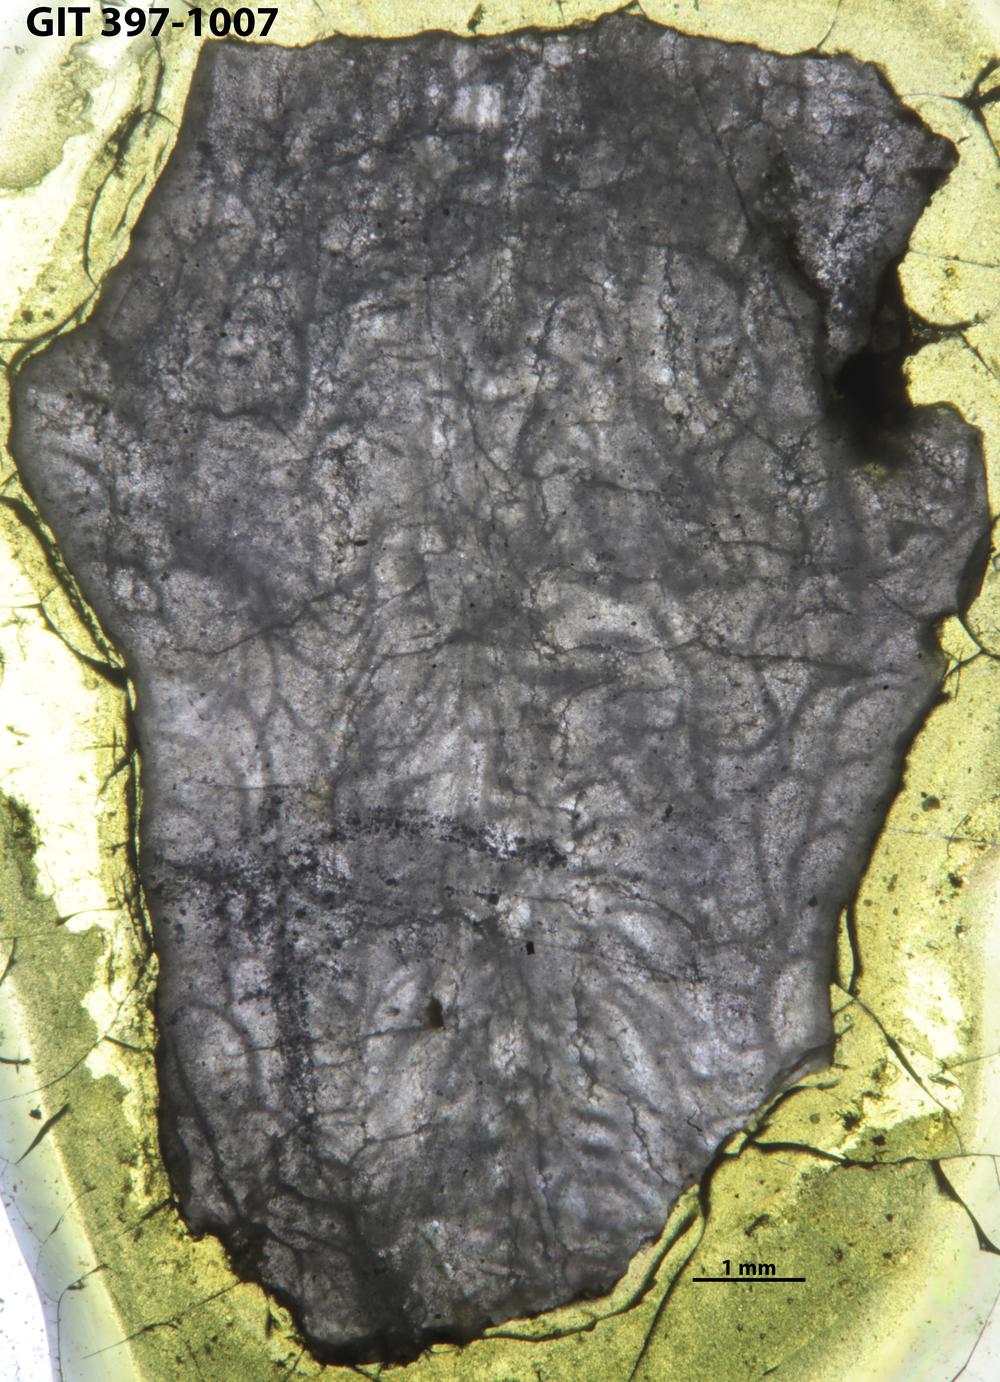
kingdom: Animalia
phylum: Cnidaria
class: Anthozoa
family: Entelophyllidae
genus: Petrozium
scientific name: Petrozium losseni
